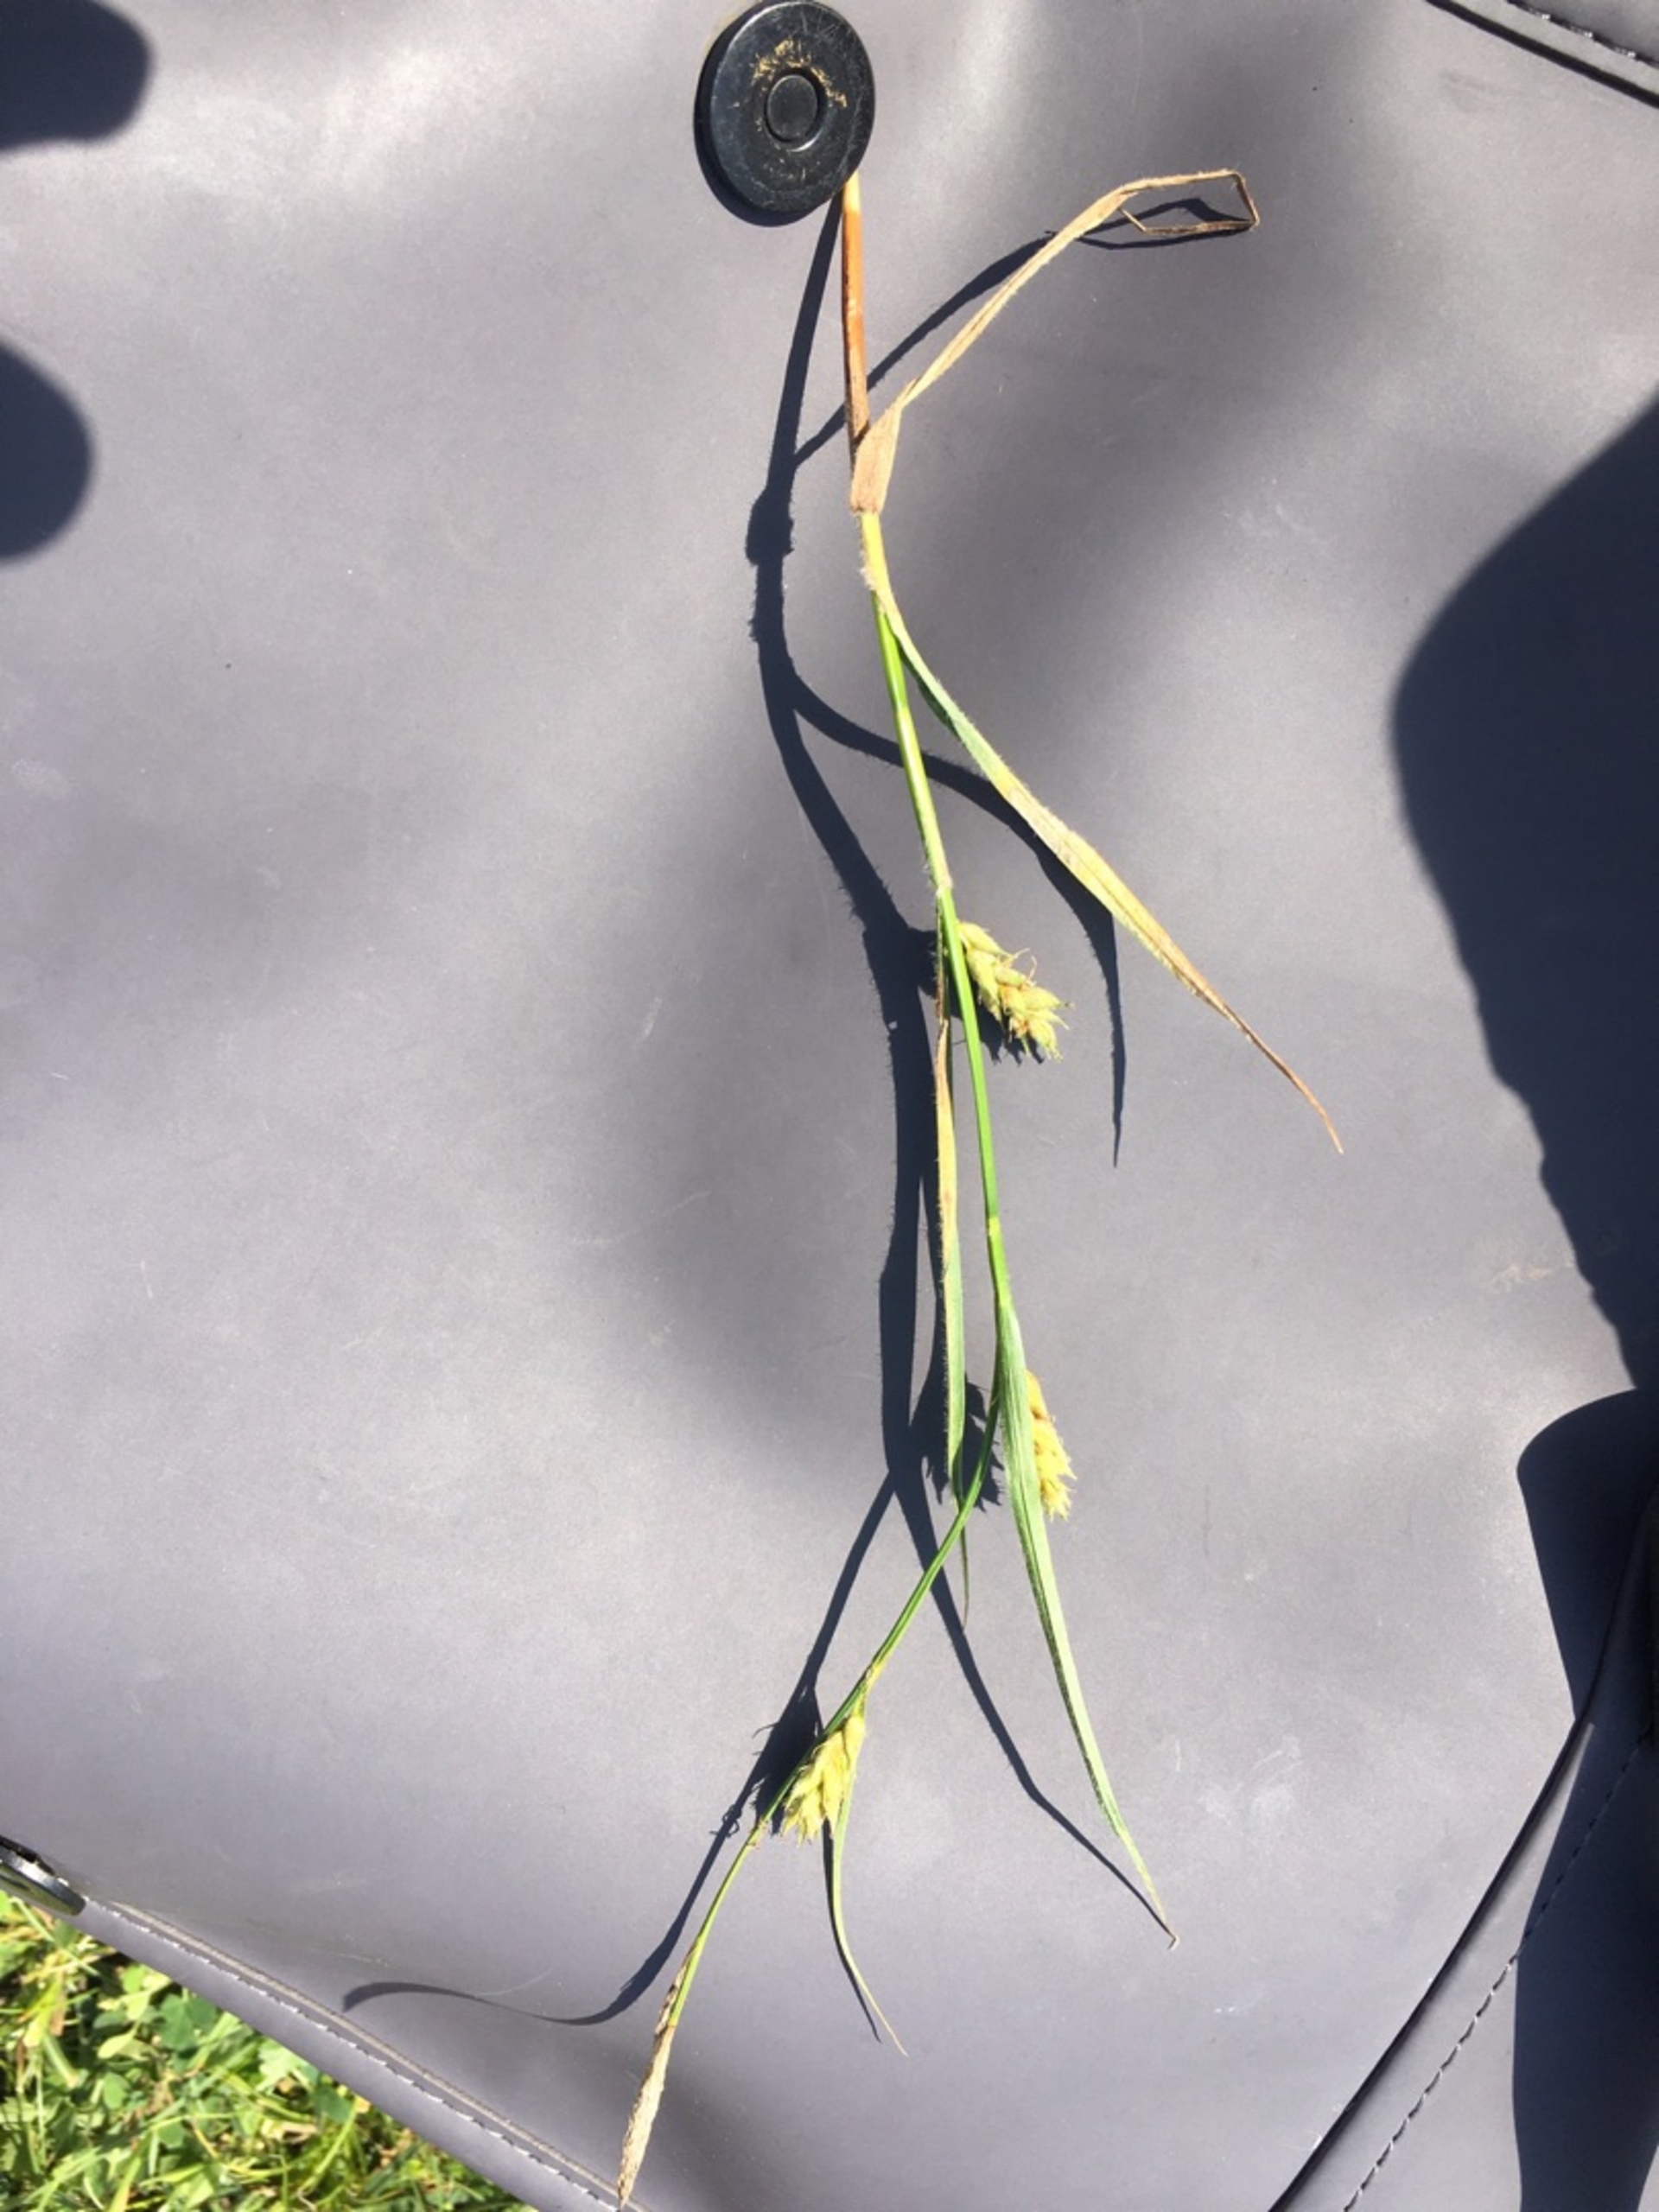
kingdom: Plantae
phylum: Tracheophyta
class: Liliopsida
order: Poales
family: Cyperaceae
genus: Carex
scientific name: Carex hirta
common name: Håret star
